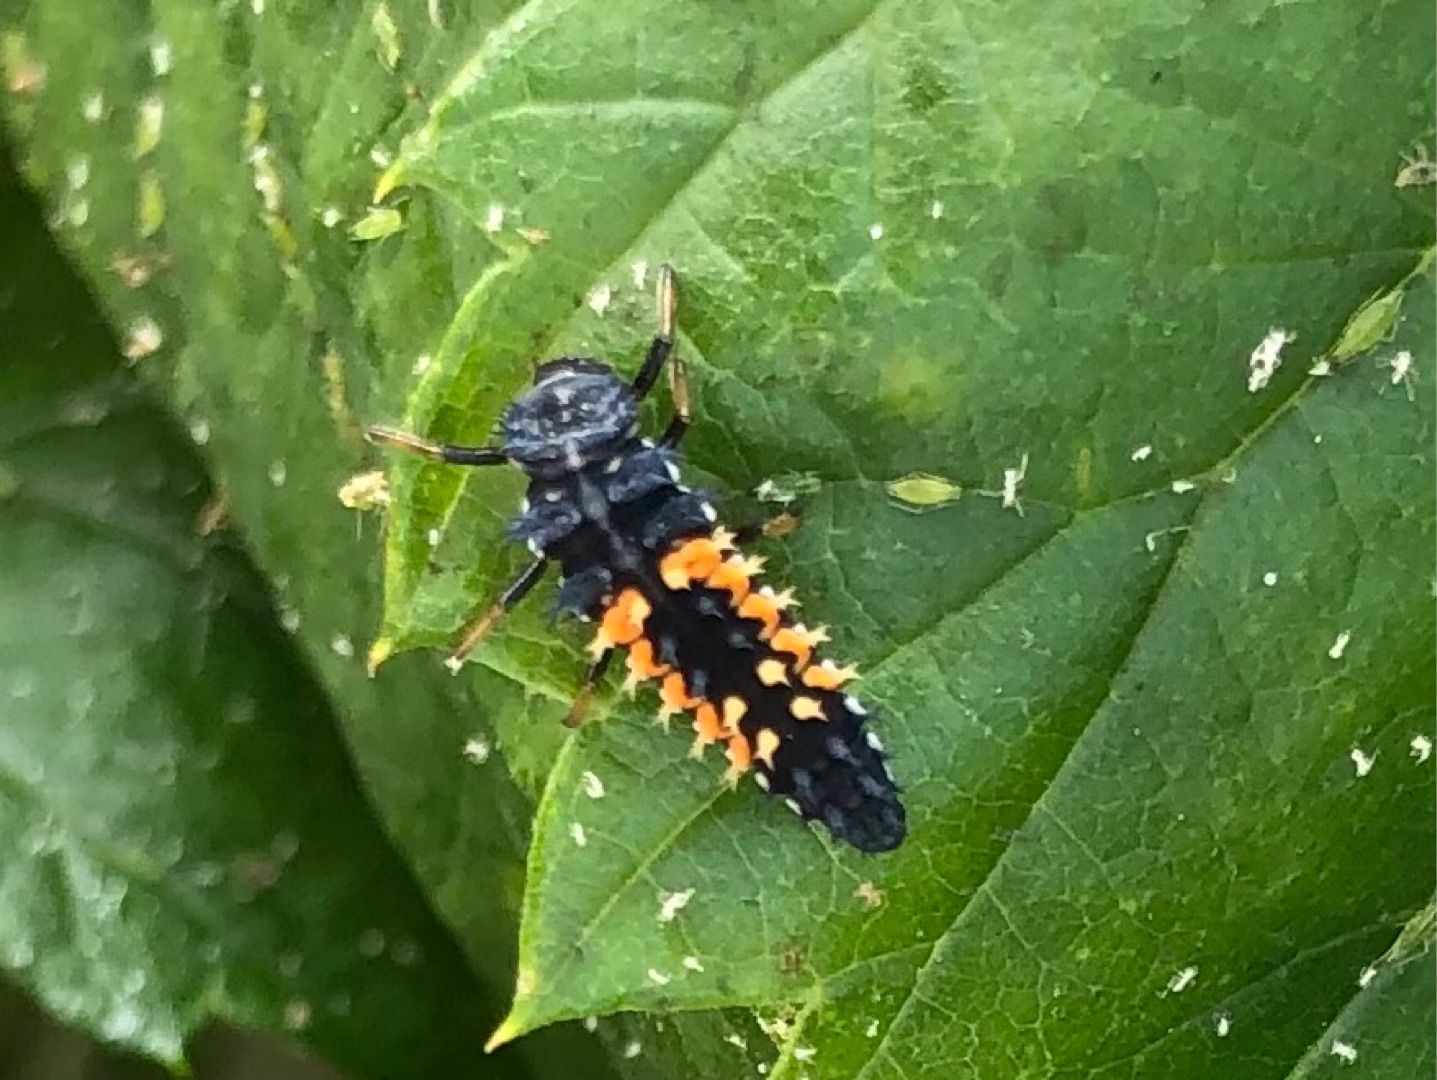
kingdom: Animalia
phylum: Arthropoda
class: Insecta
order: Coleoptera
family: Coccinellidae
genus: Harmonia
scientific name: Harmonia axyridis
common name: Harlekinmariehøne
